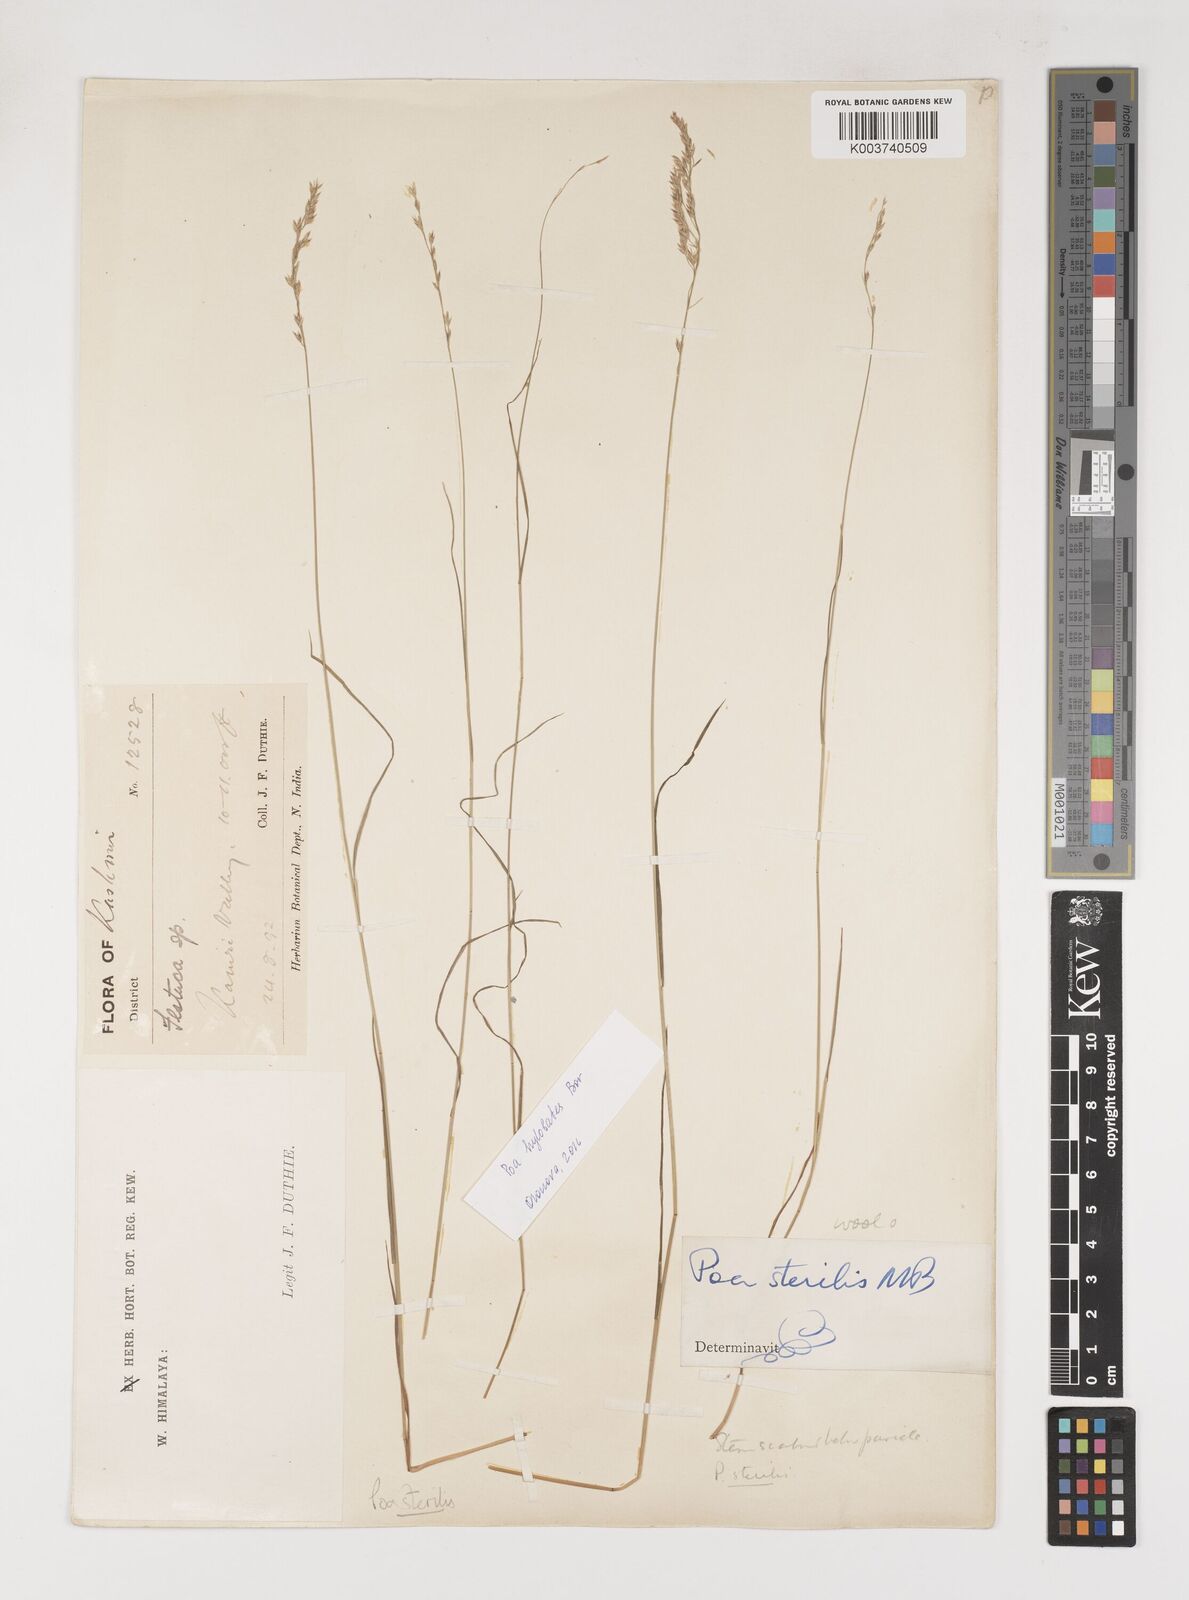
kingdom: Plantae
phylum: Tracheophyta
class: Liliopsida
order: Poales
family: Poaceae
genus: Poa
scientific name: Poa sterilis
